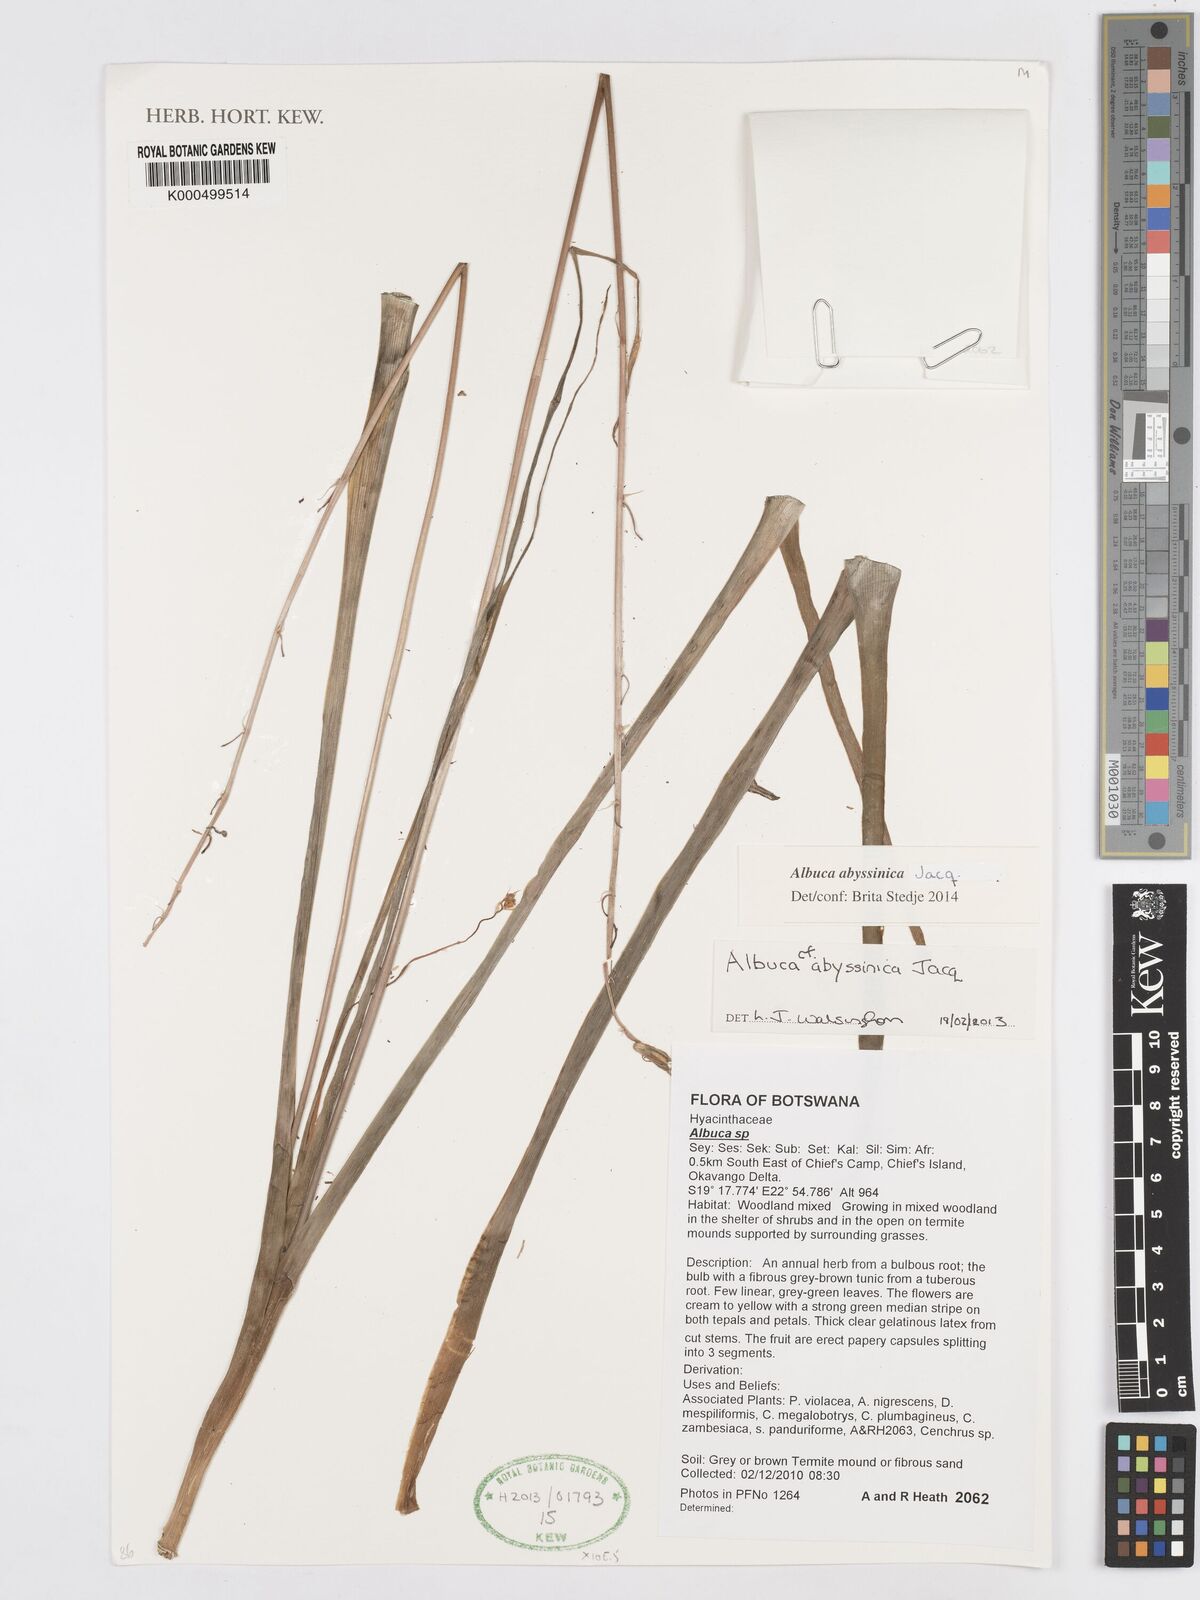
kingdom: Plantae
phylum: Tracheophyta
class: Liliopsida
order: Asparagales
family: Asparagaceae
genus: Albuca
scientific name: Albuca abyssinica
